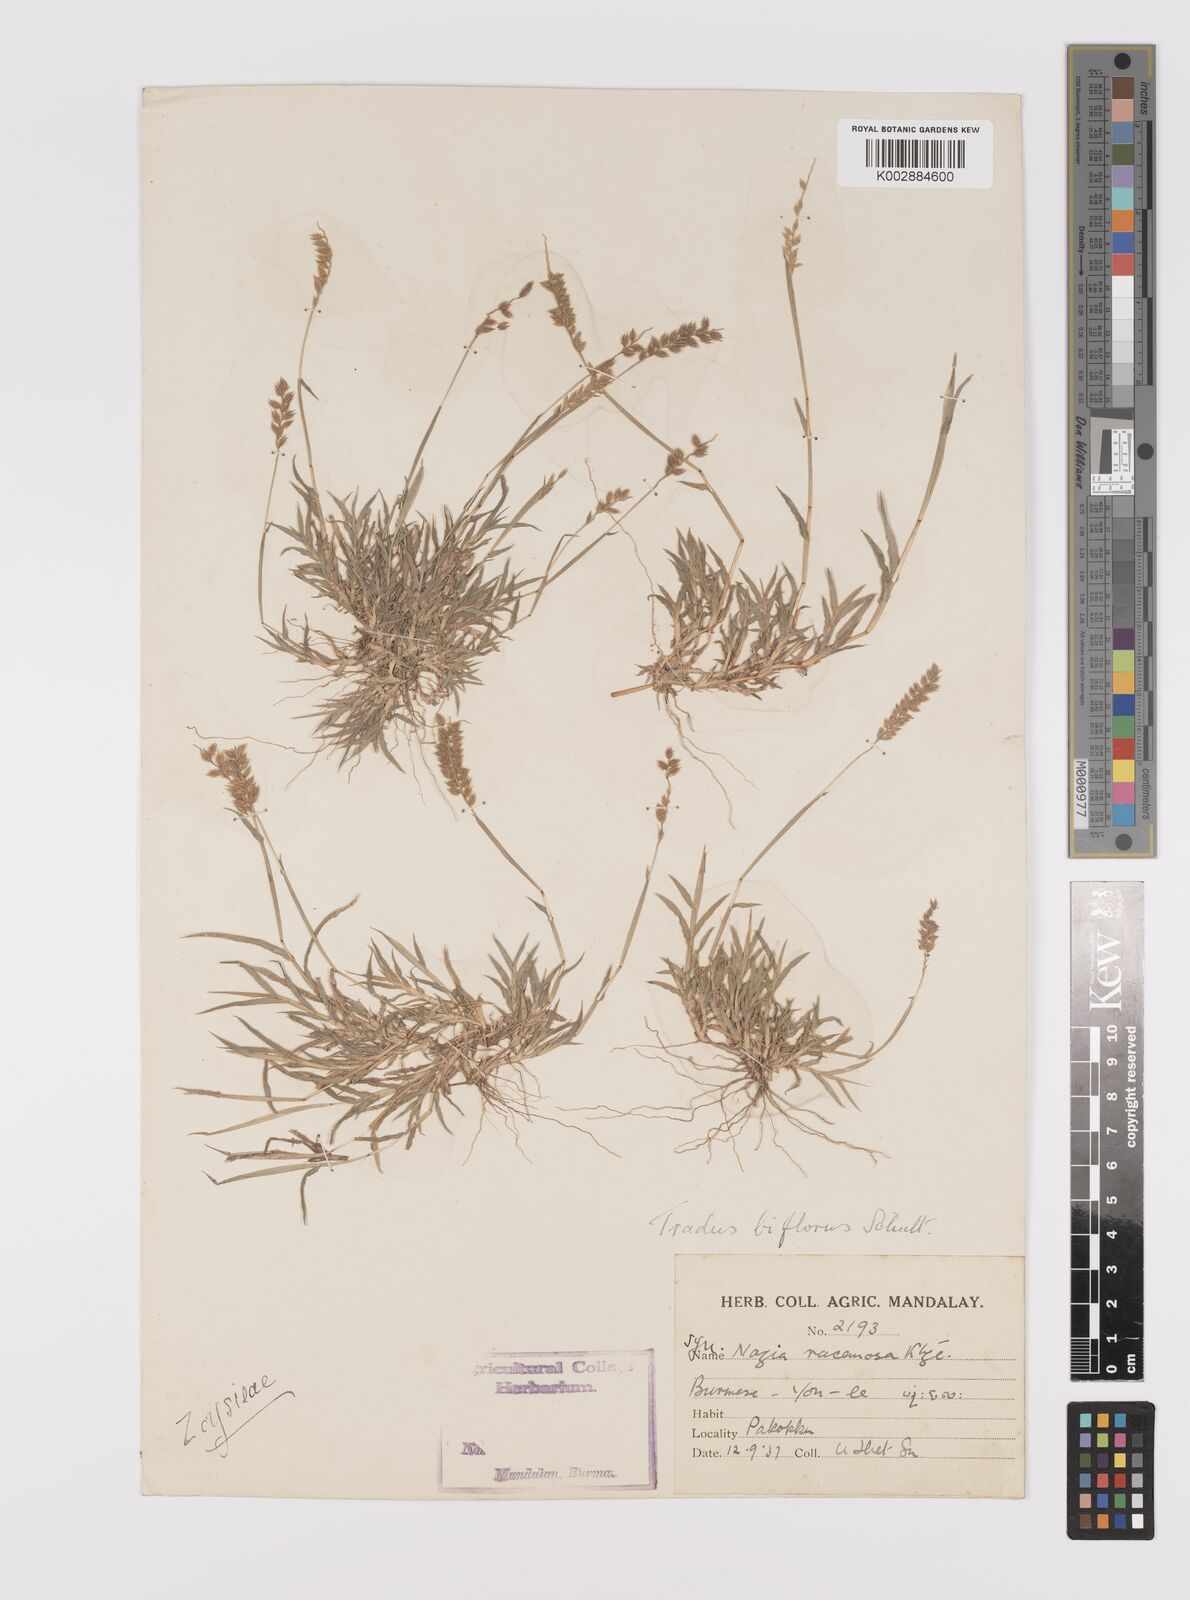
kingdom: Plantae
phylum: Tracheophyta
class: Liliopsida
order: Poales
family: Poaceae
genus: Tragus
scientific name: Tragus mongolorum
